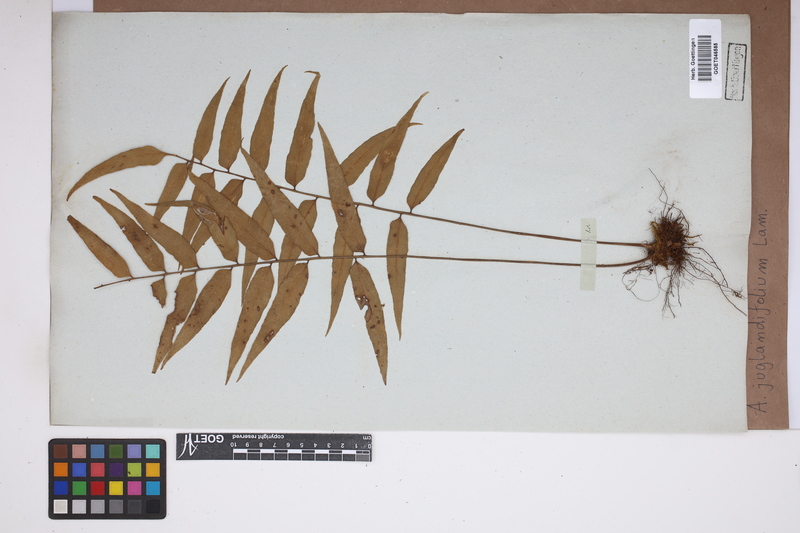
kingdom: Plantae
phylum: Tracheophyta
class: Polypodiopsida
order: Polypodiales
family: Aspleniaceae
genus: Asplenium
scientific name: Asplenium juglandifolium
